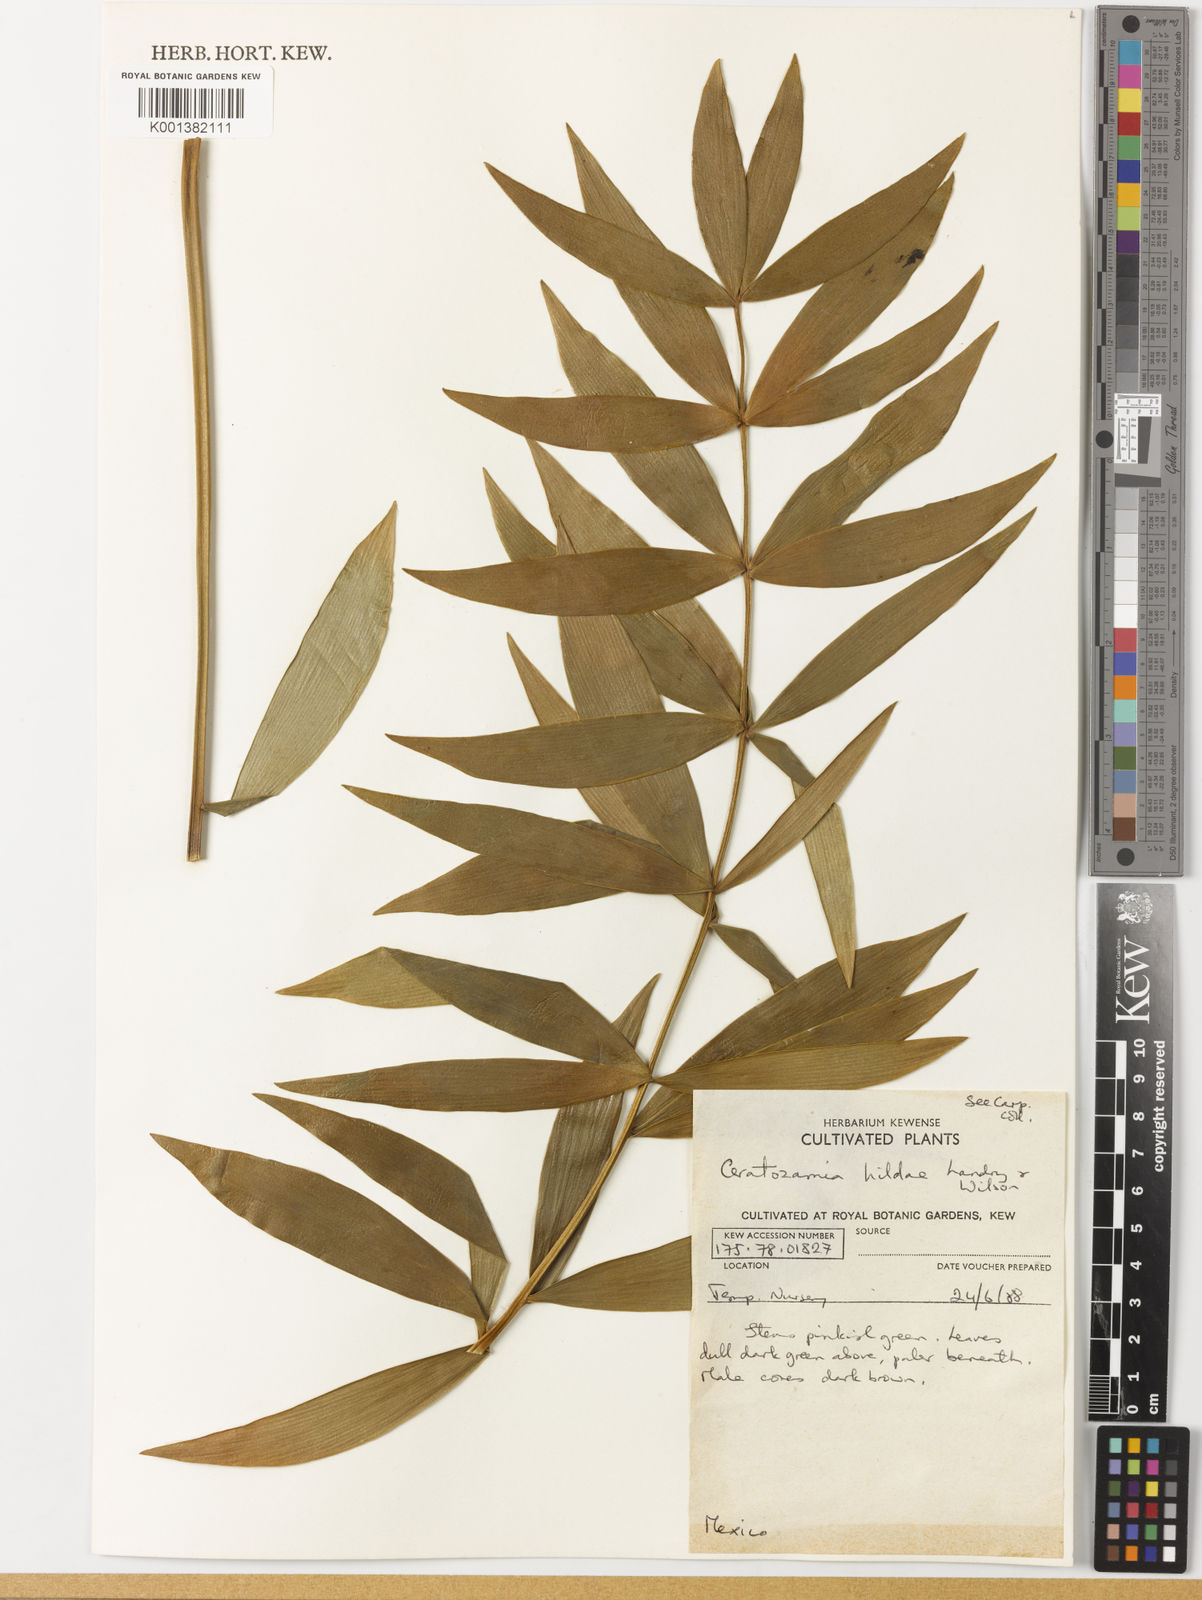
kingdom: Plantae
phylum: Tracheophyta
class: Cycadopsida
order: Cycadales
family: Zamiaceae
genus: Ceratozamia
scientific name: Ceratozamia hildae
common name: Bamboo cycad
